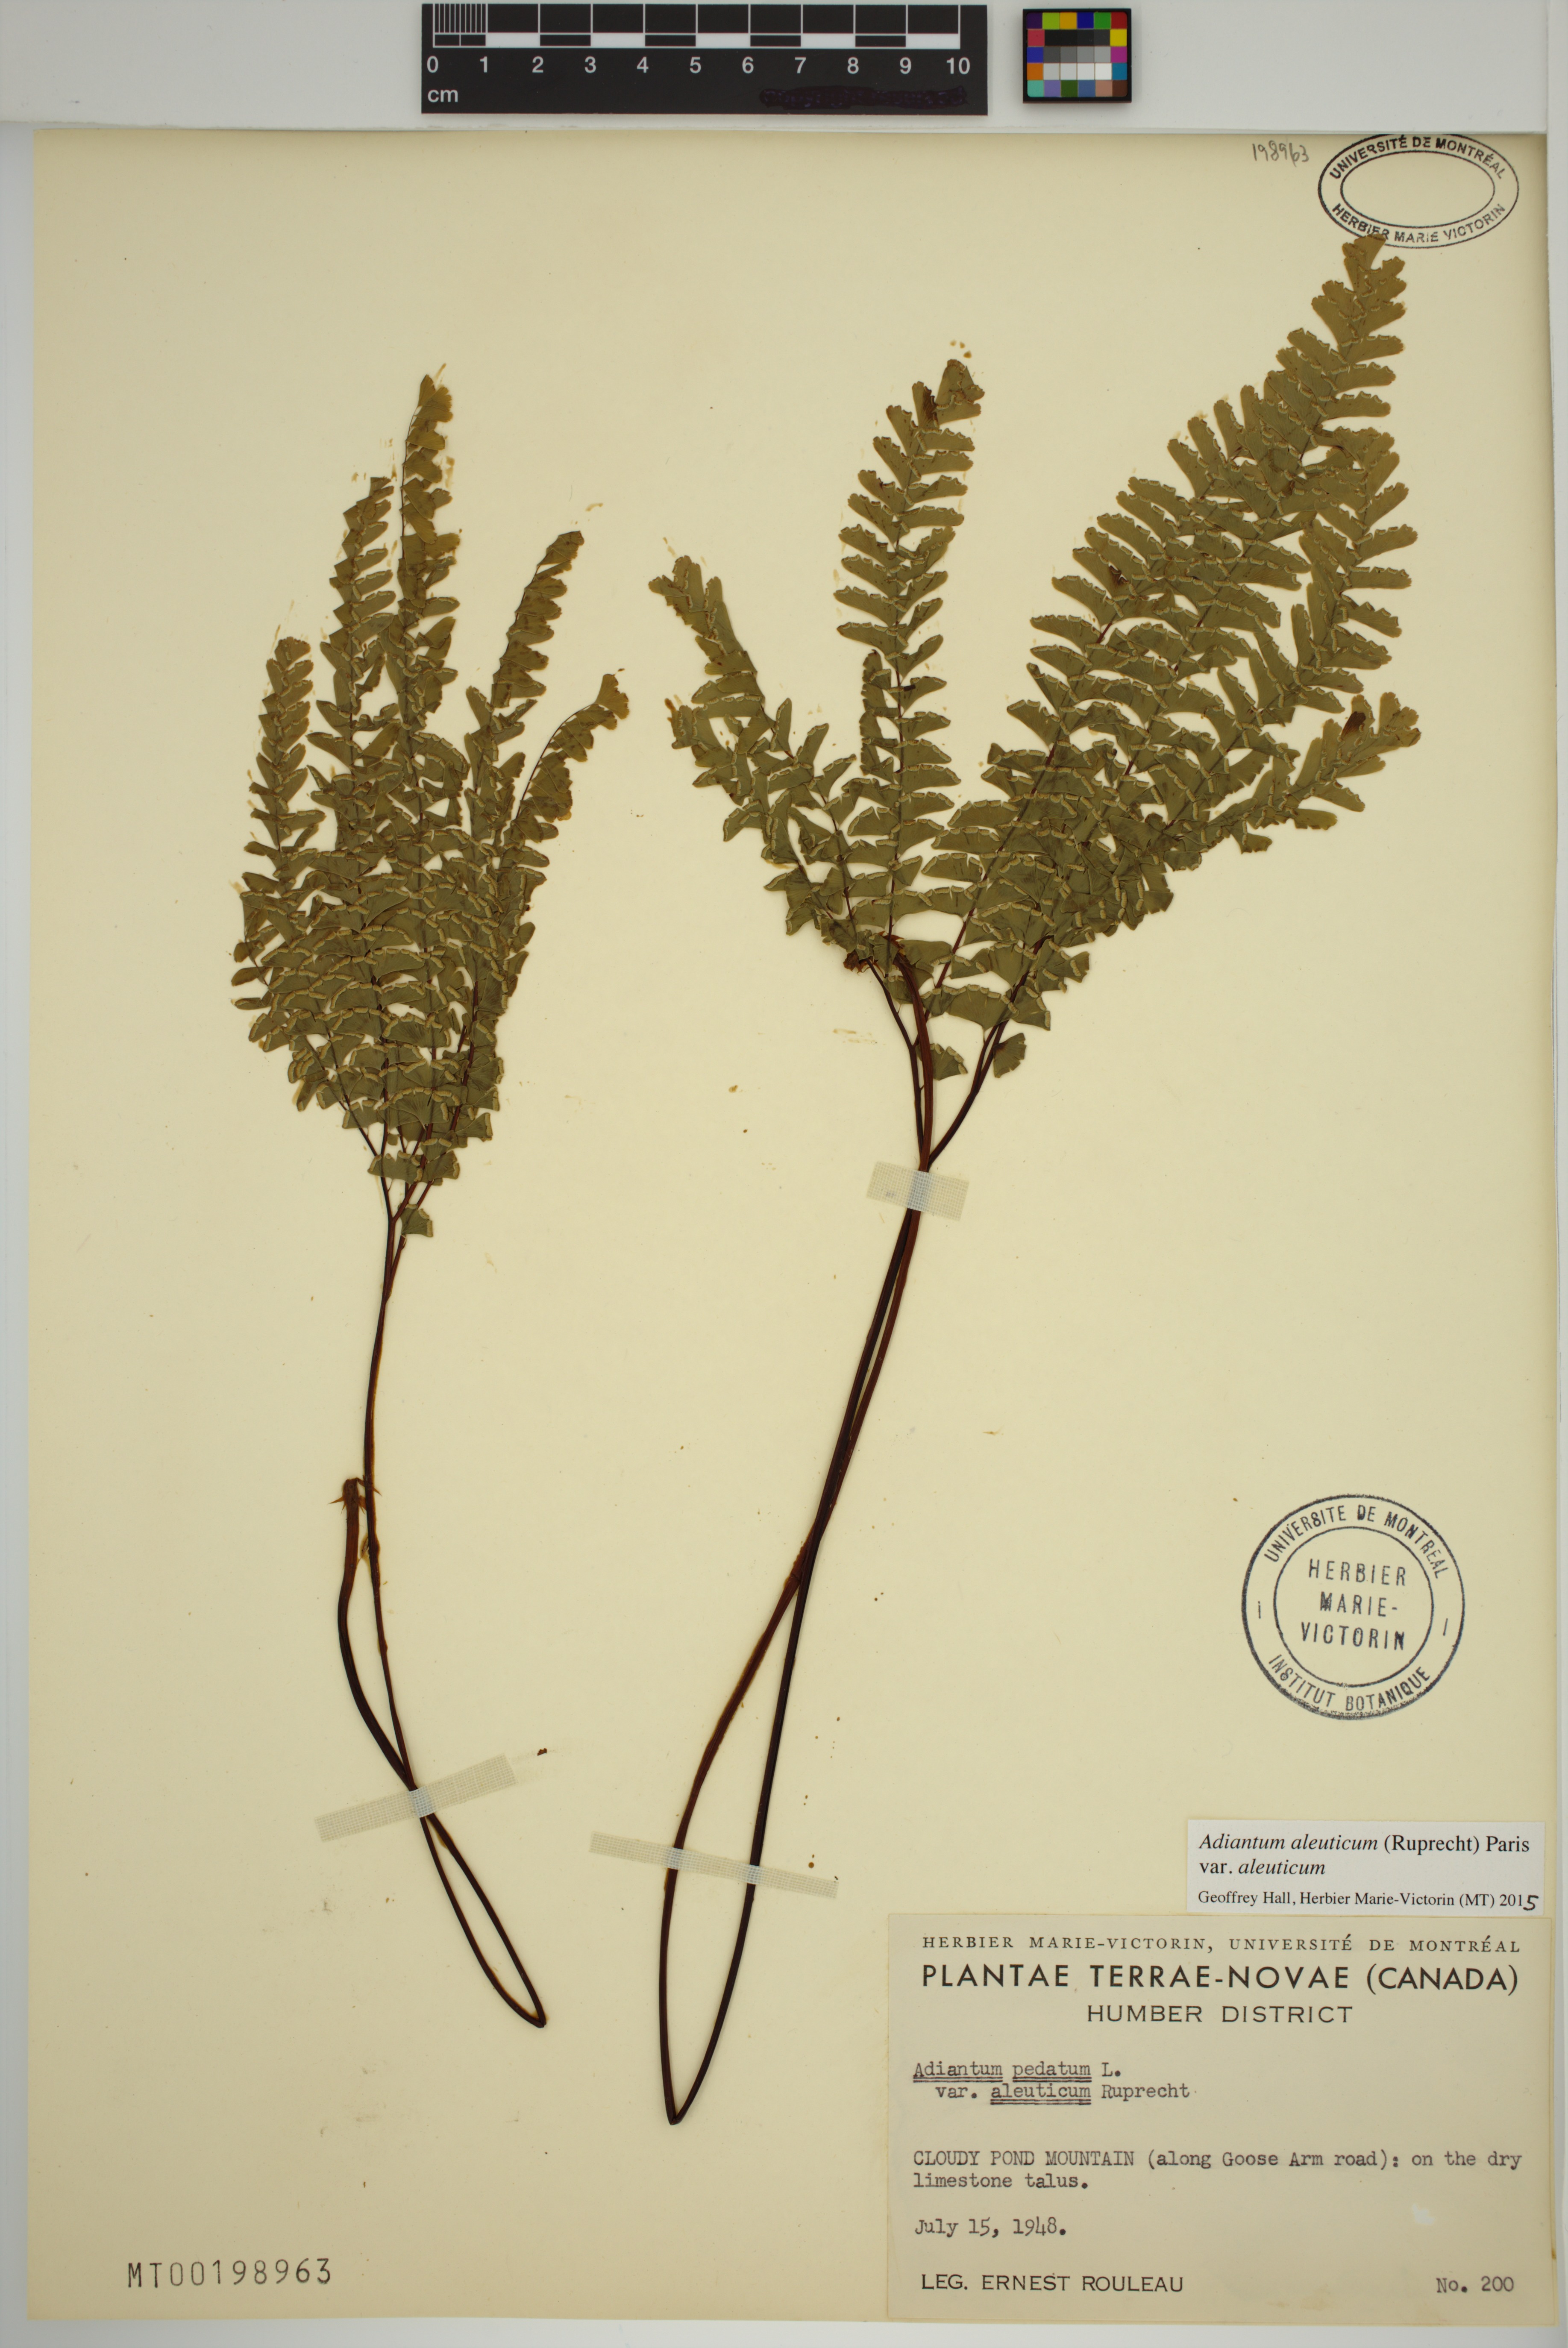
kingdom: Plantae
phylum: Tracheophyta
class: Polypodiopsida
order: Polypodiales
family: Pteridaceae
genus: Adiantum
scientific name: Adiantum aleuticum
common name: Aleutian maidenhair fern
